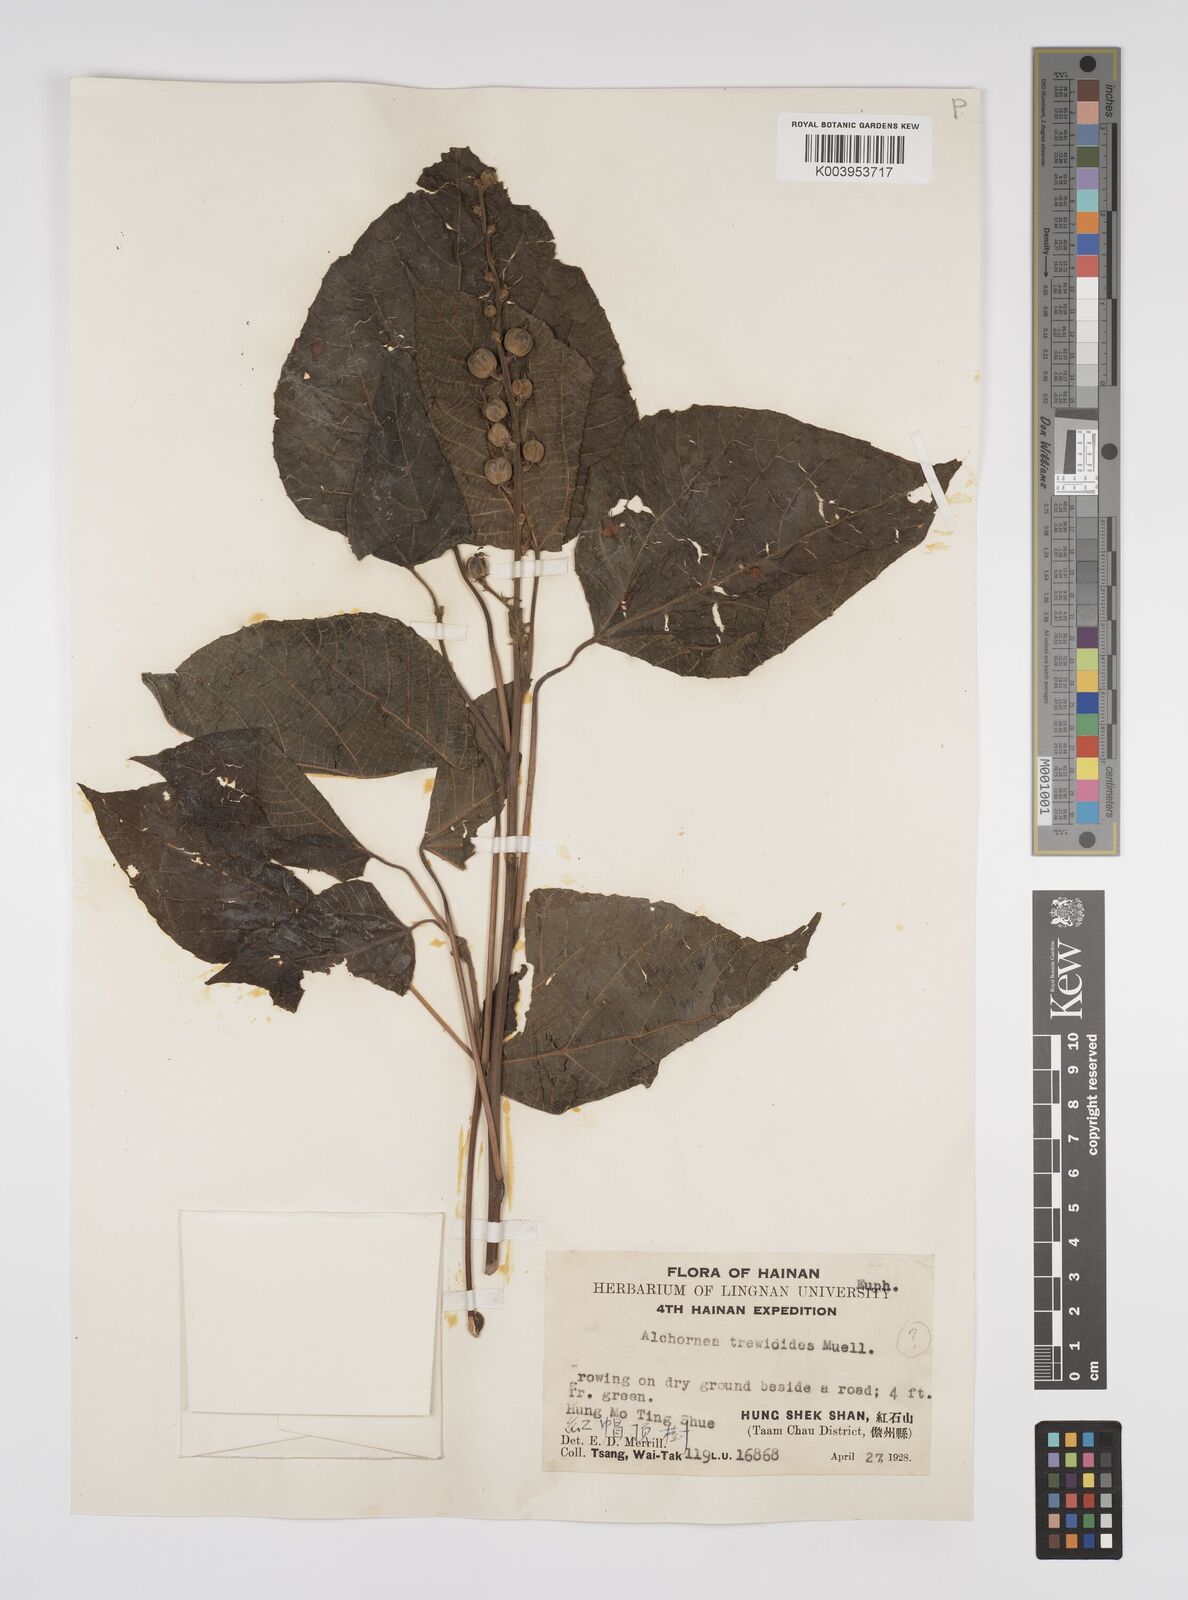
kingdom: Plantae
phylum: Tracheophyta
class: Magnoliopsida
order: Malpighiales
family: Euphorbiaceae
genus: Alchornea
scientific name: Alchornea trewioides
